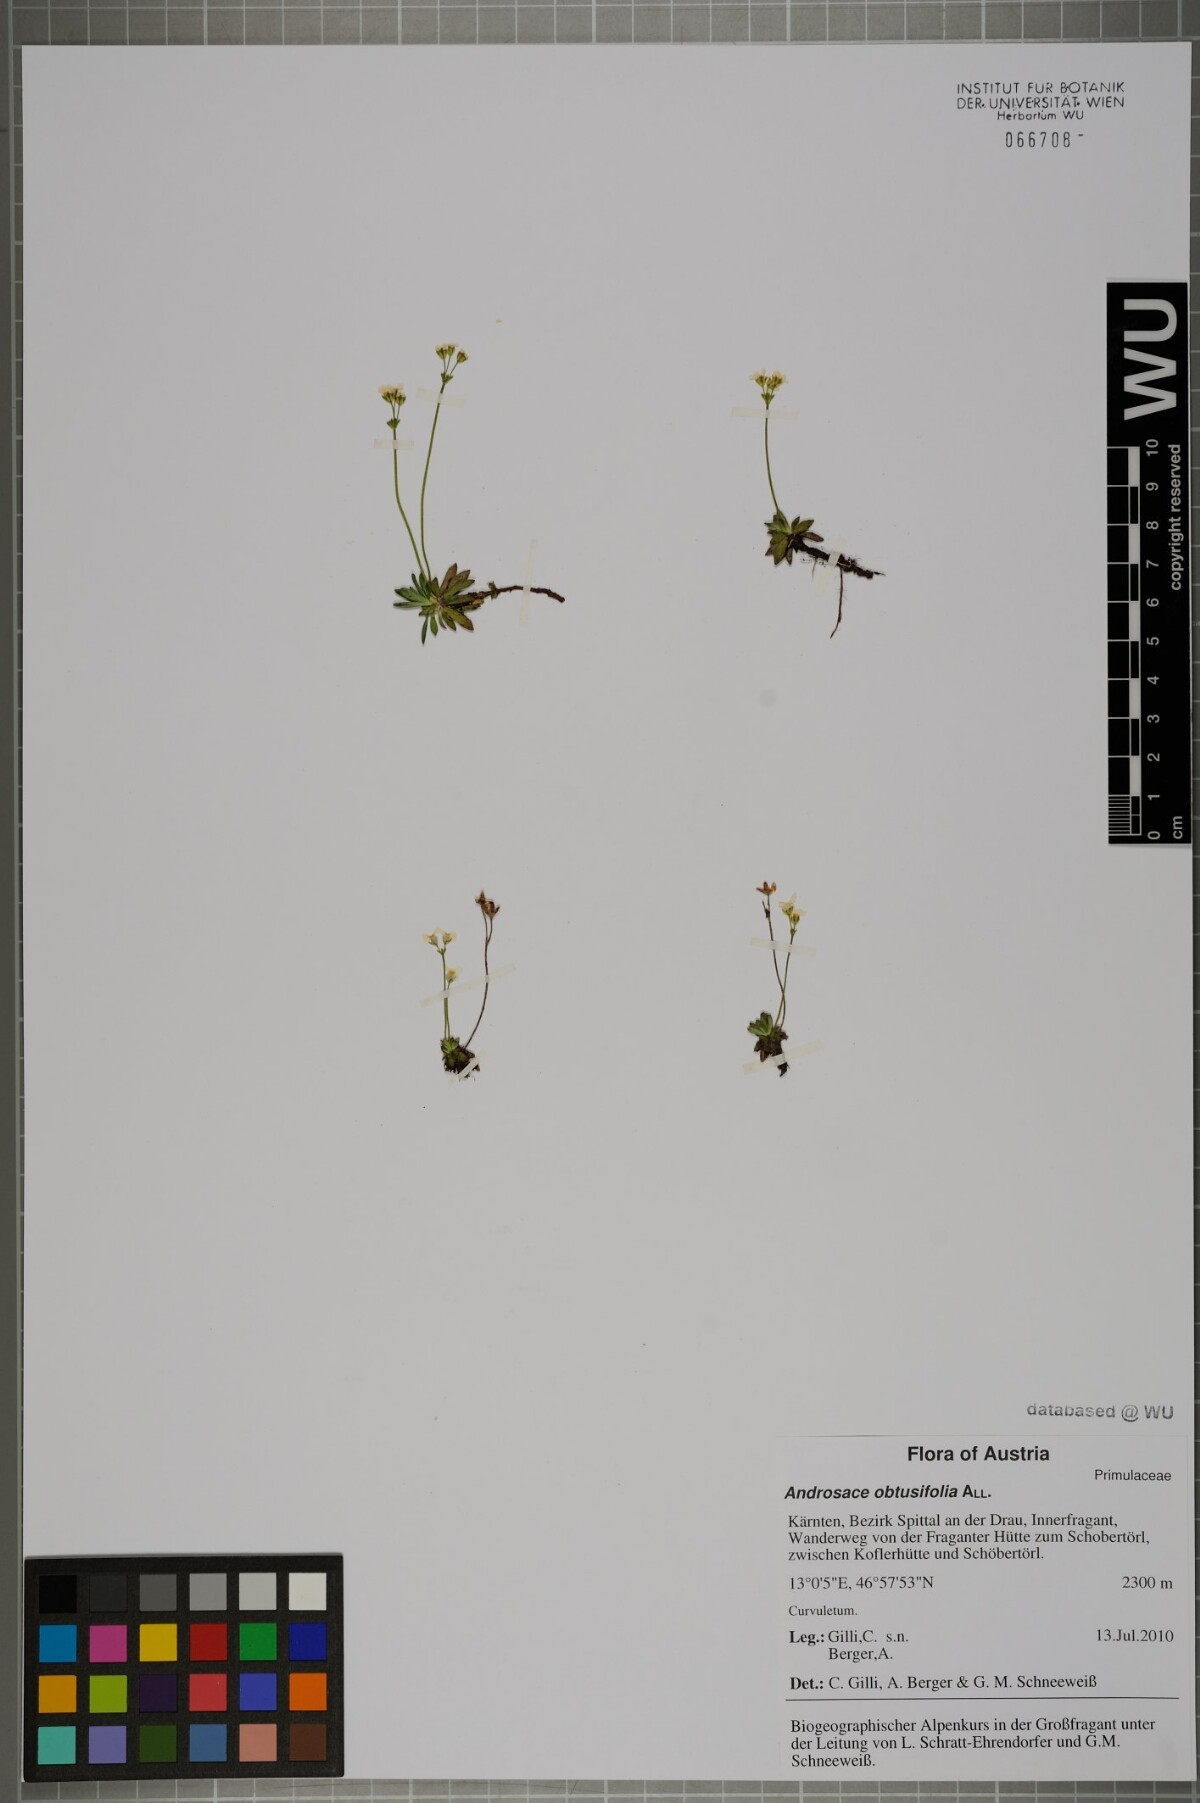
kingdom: Plantae
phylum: Tracheophyta
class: Magnoliopsida
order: Ericales
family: Primulaceae
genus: Androsace
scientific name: Androsace obtusifolia
